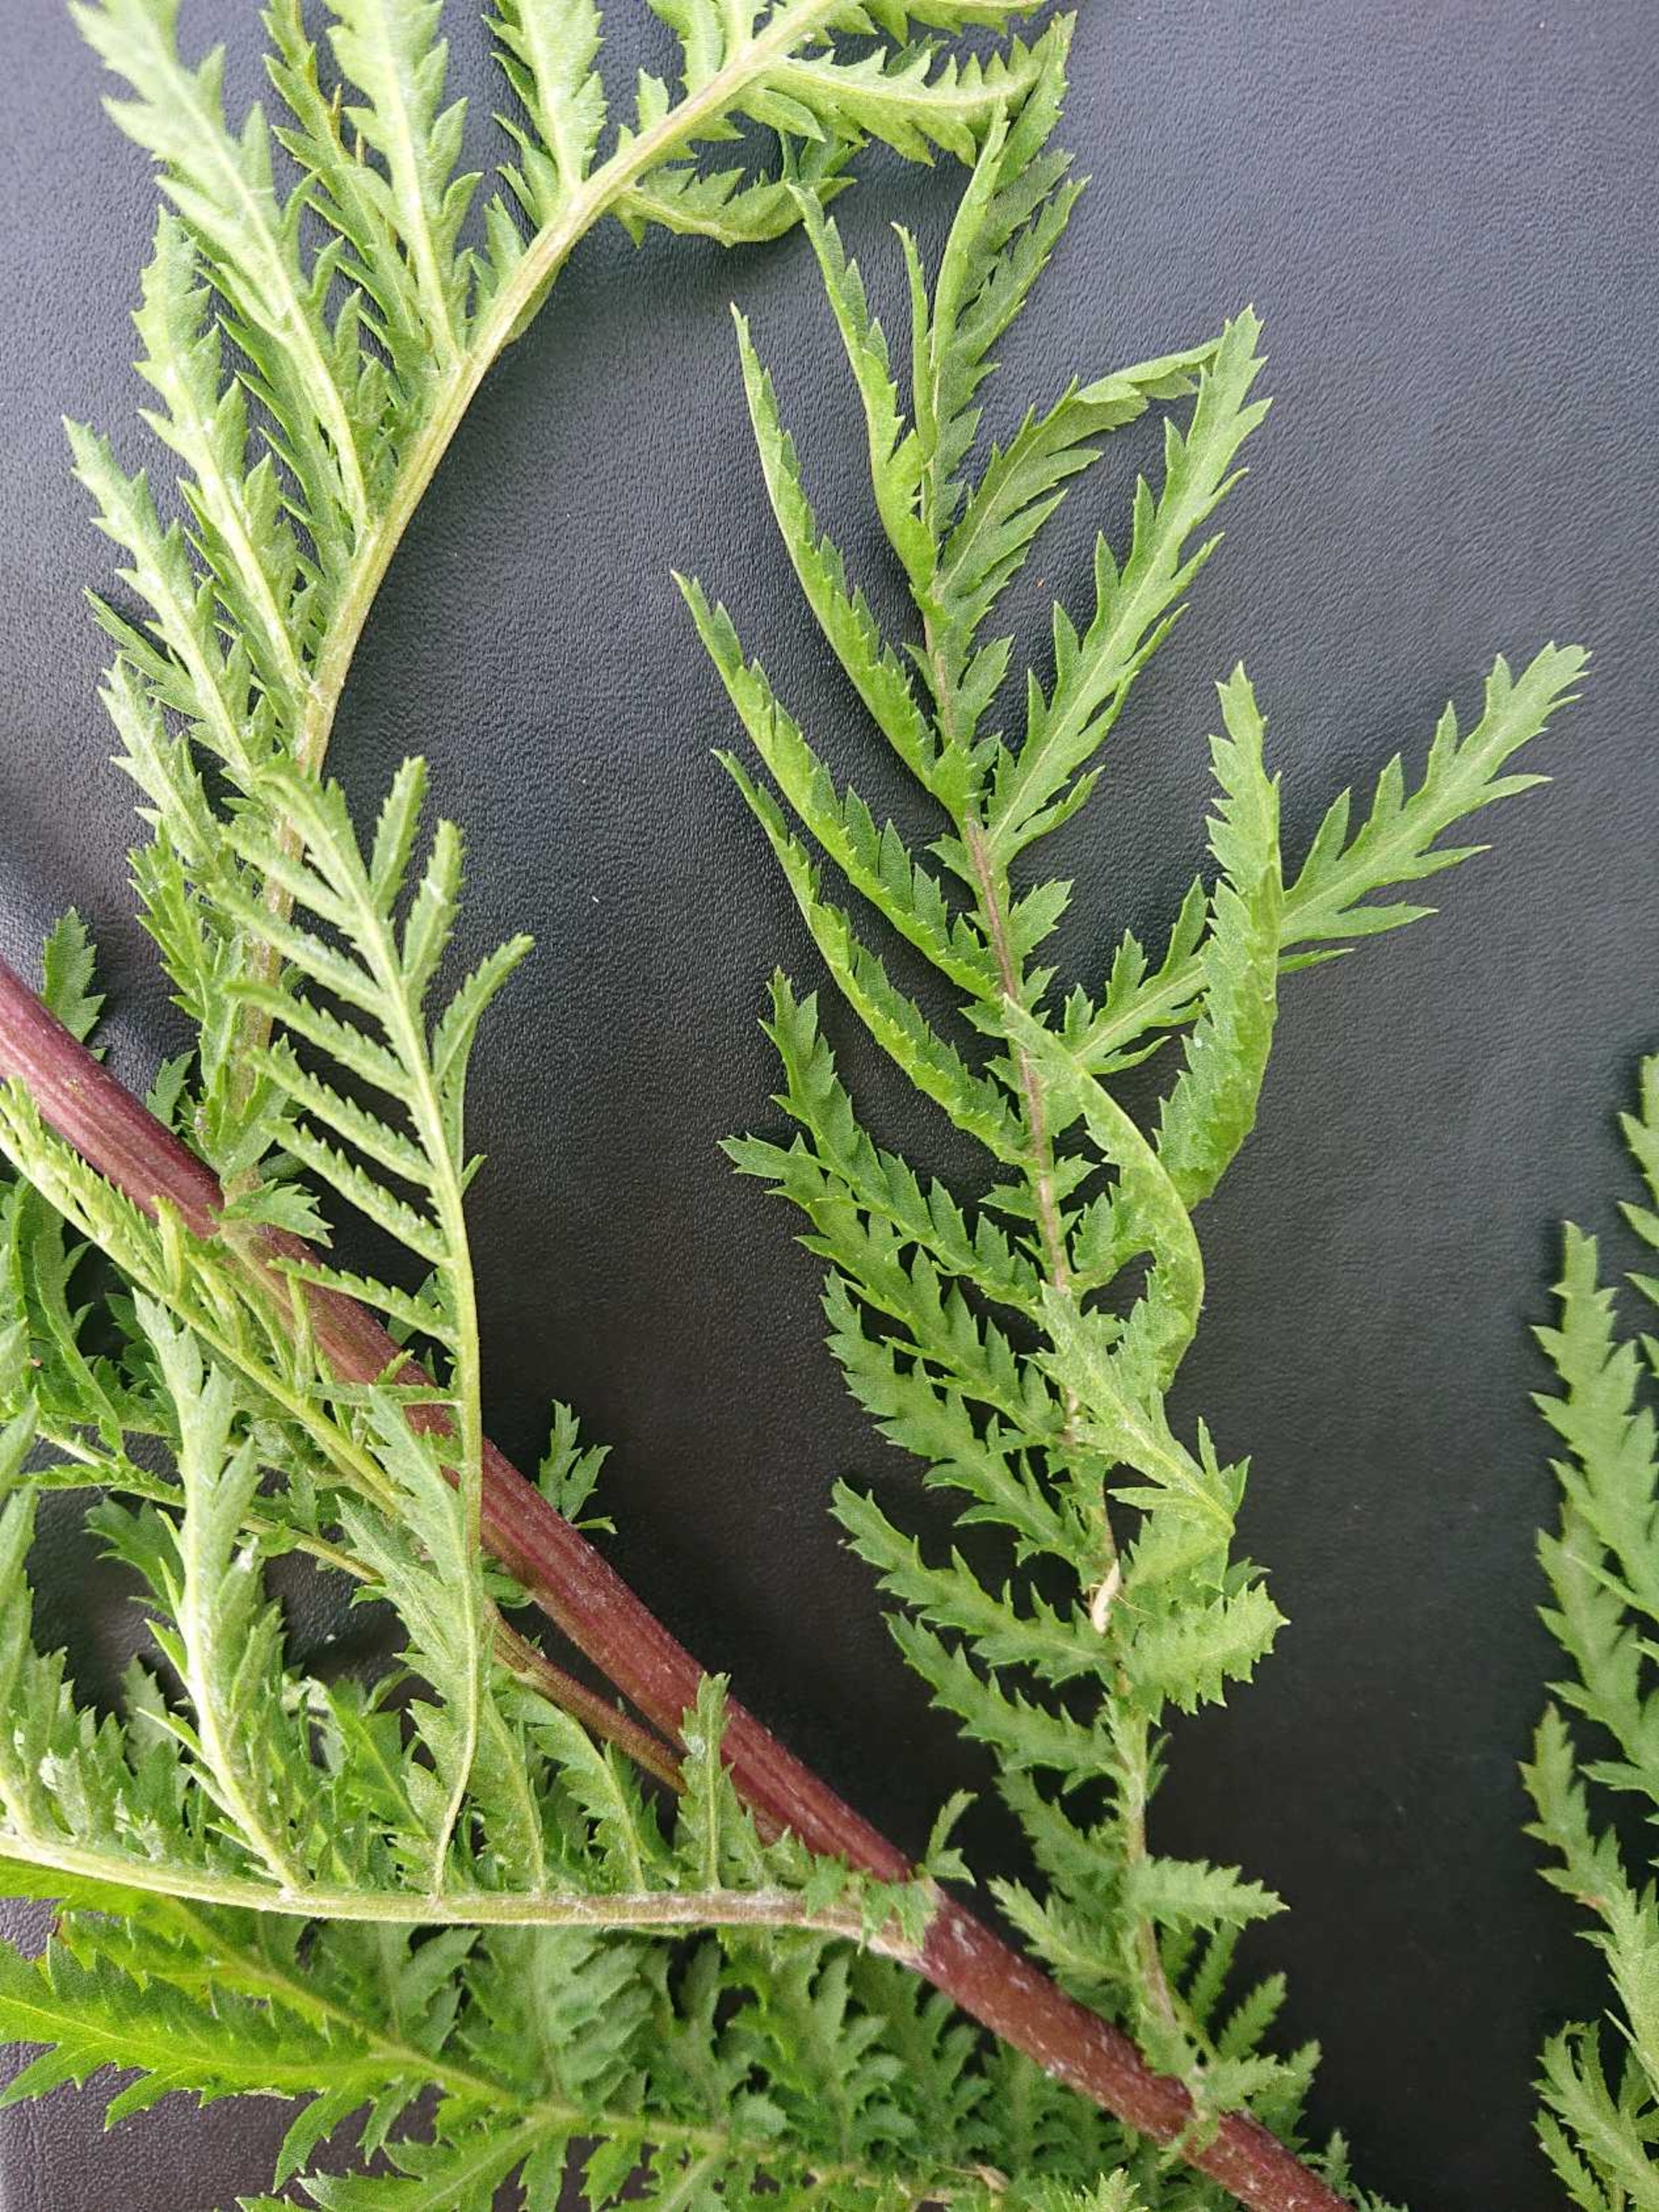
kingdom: Plantae
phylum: Tracheophyta
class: Magnoliopsida
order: Asterales
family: Asteraceae
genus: Tanacetum
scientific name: Tanacetum vulgare
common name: Rejnfan
